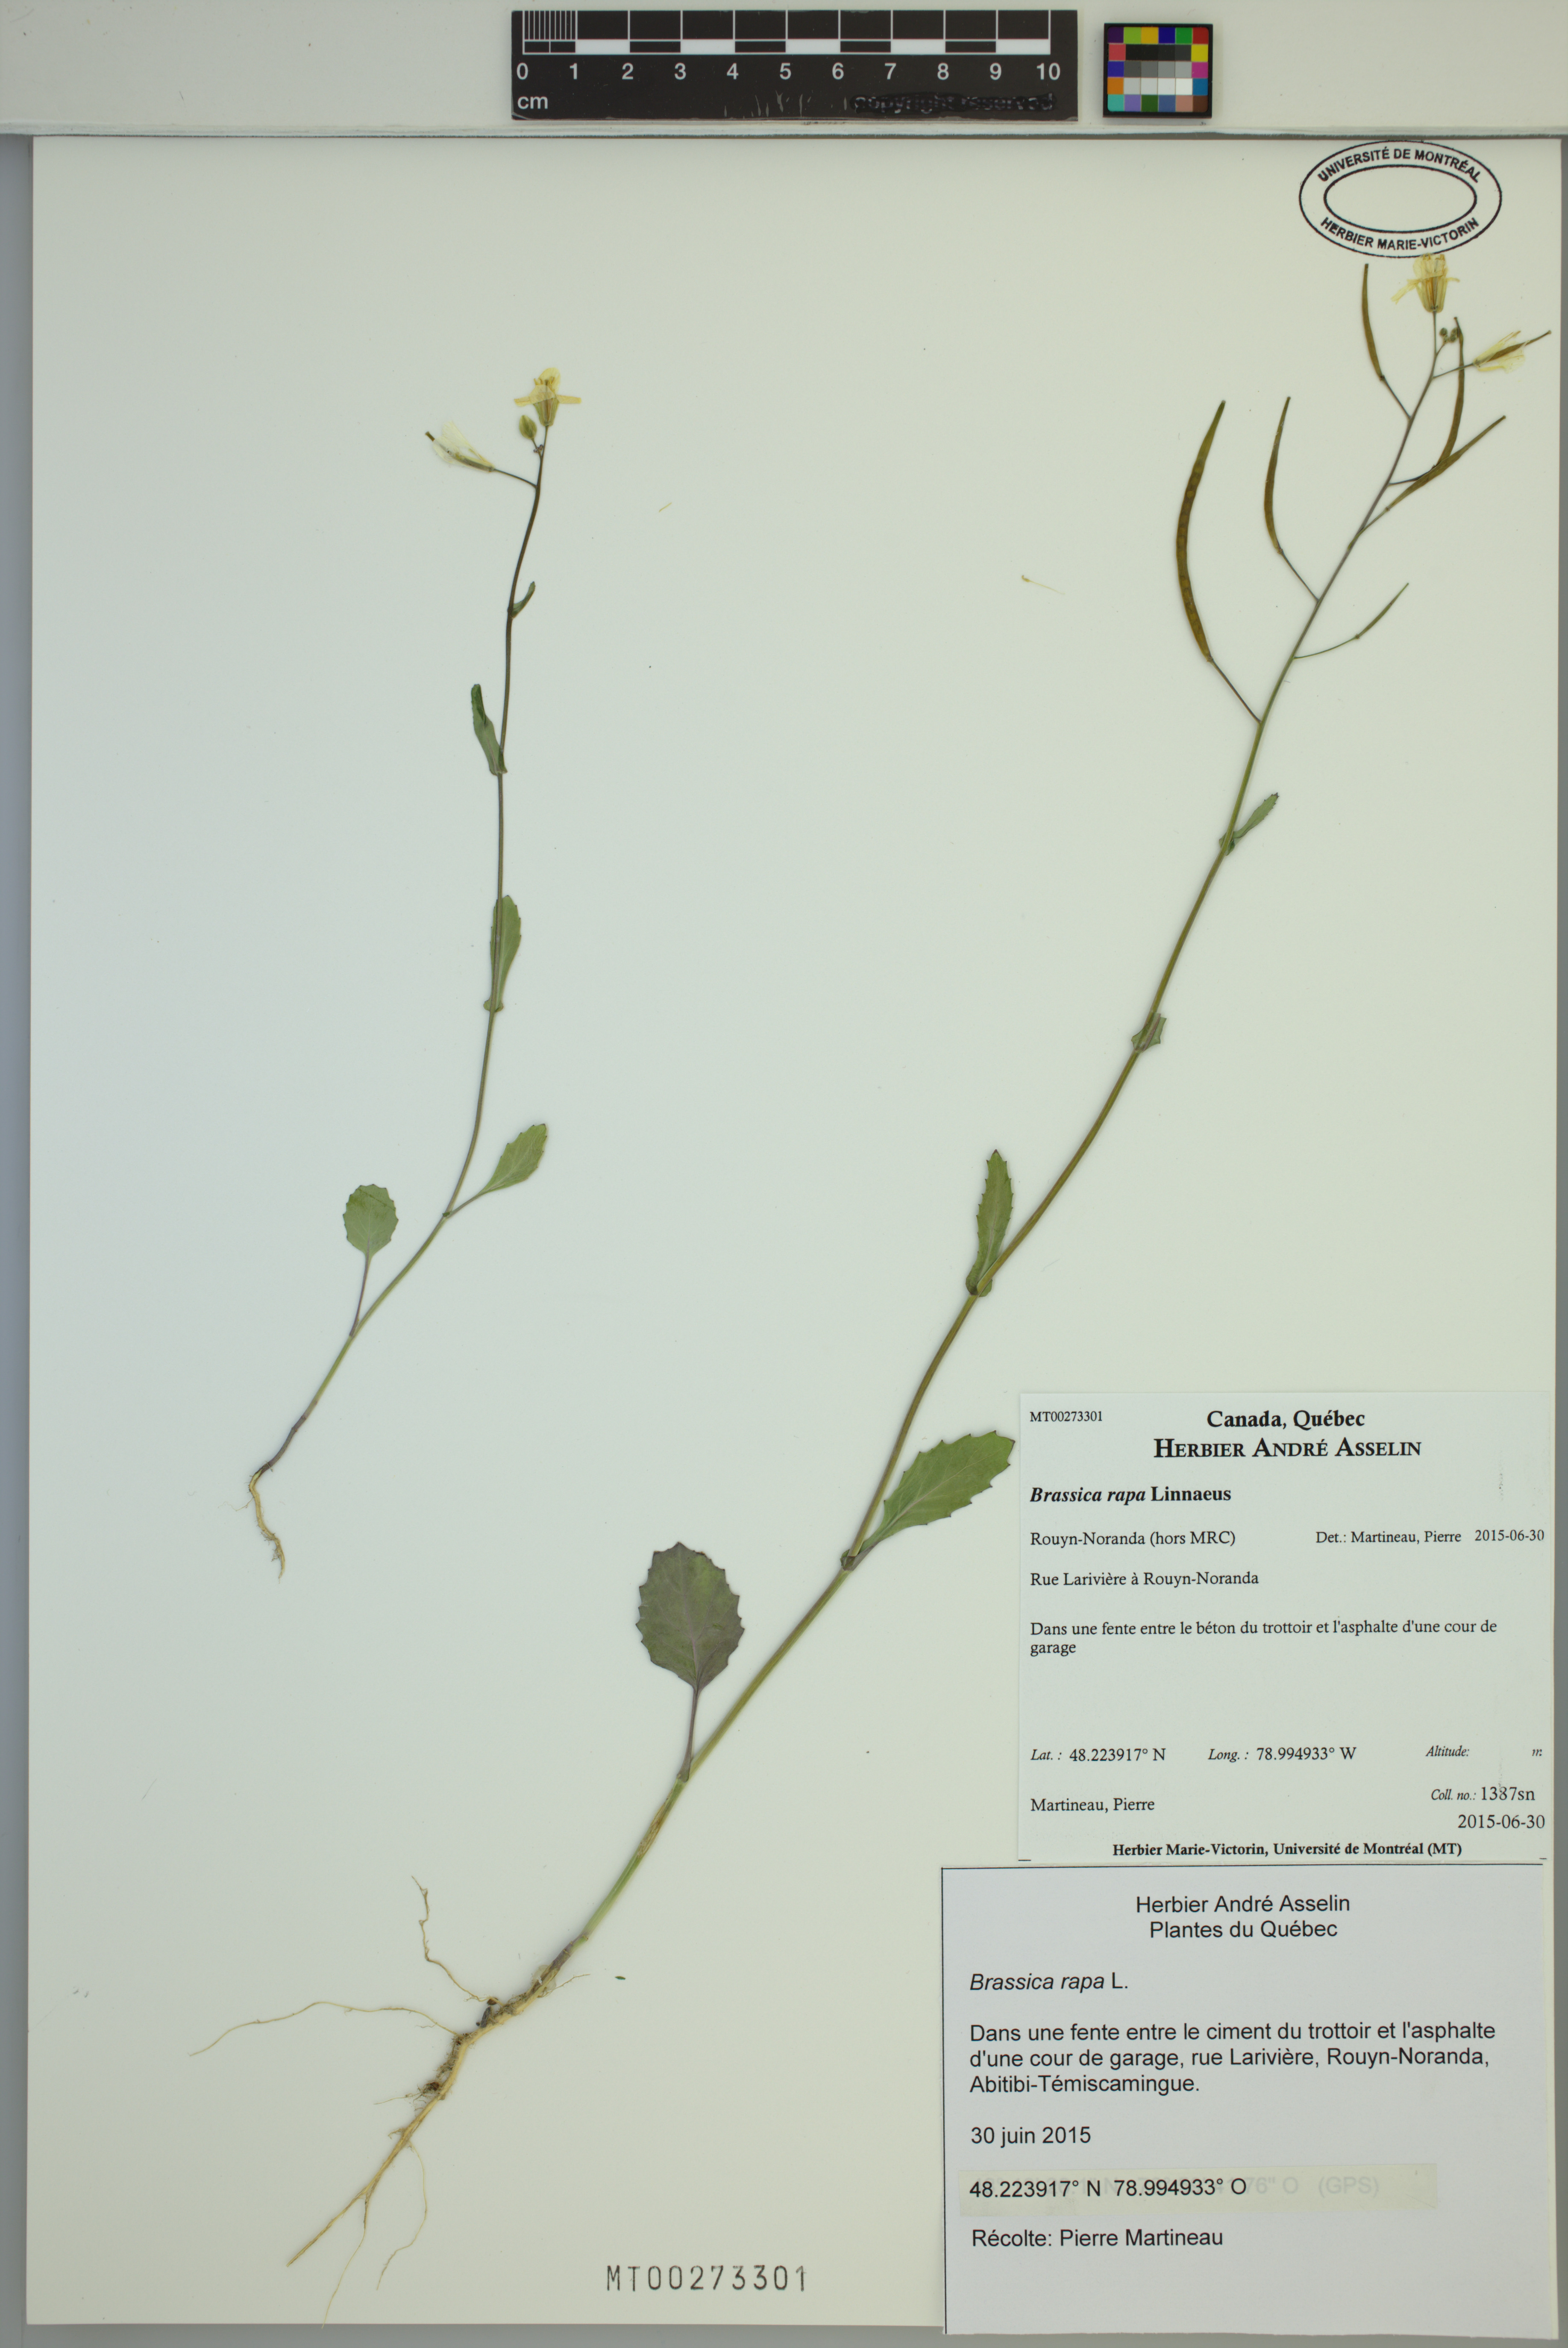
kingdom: Plantae
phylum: Tracheophyta
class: Magnoliopsida
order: Brassicales
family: Brassicaceae
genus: Brassica
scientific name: Brassica rapa
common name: Field mustard
